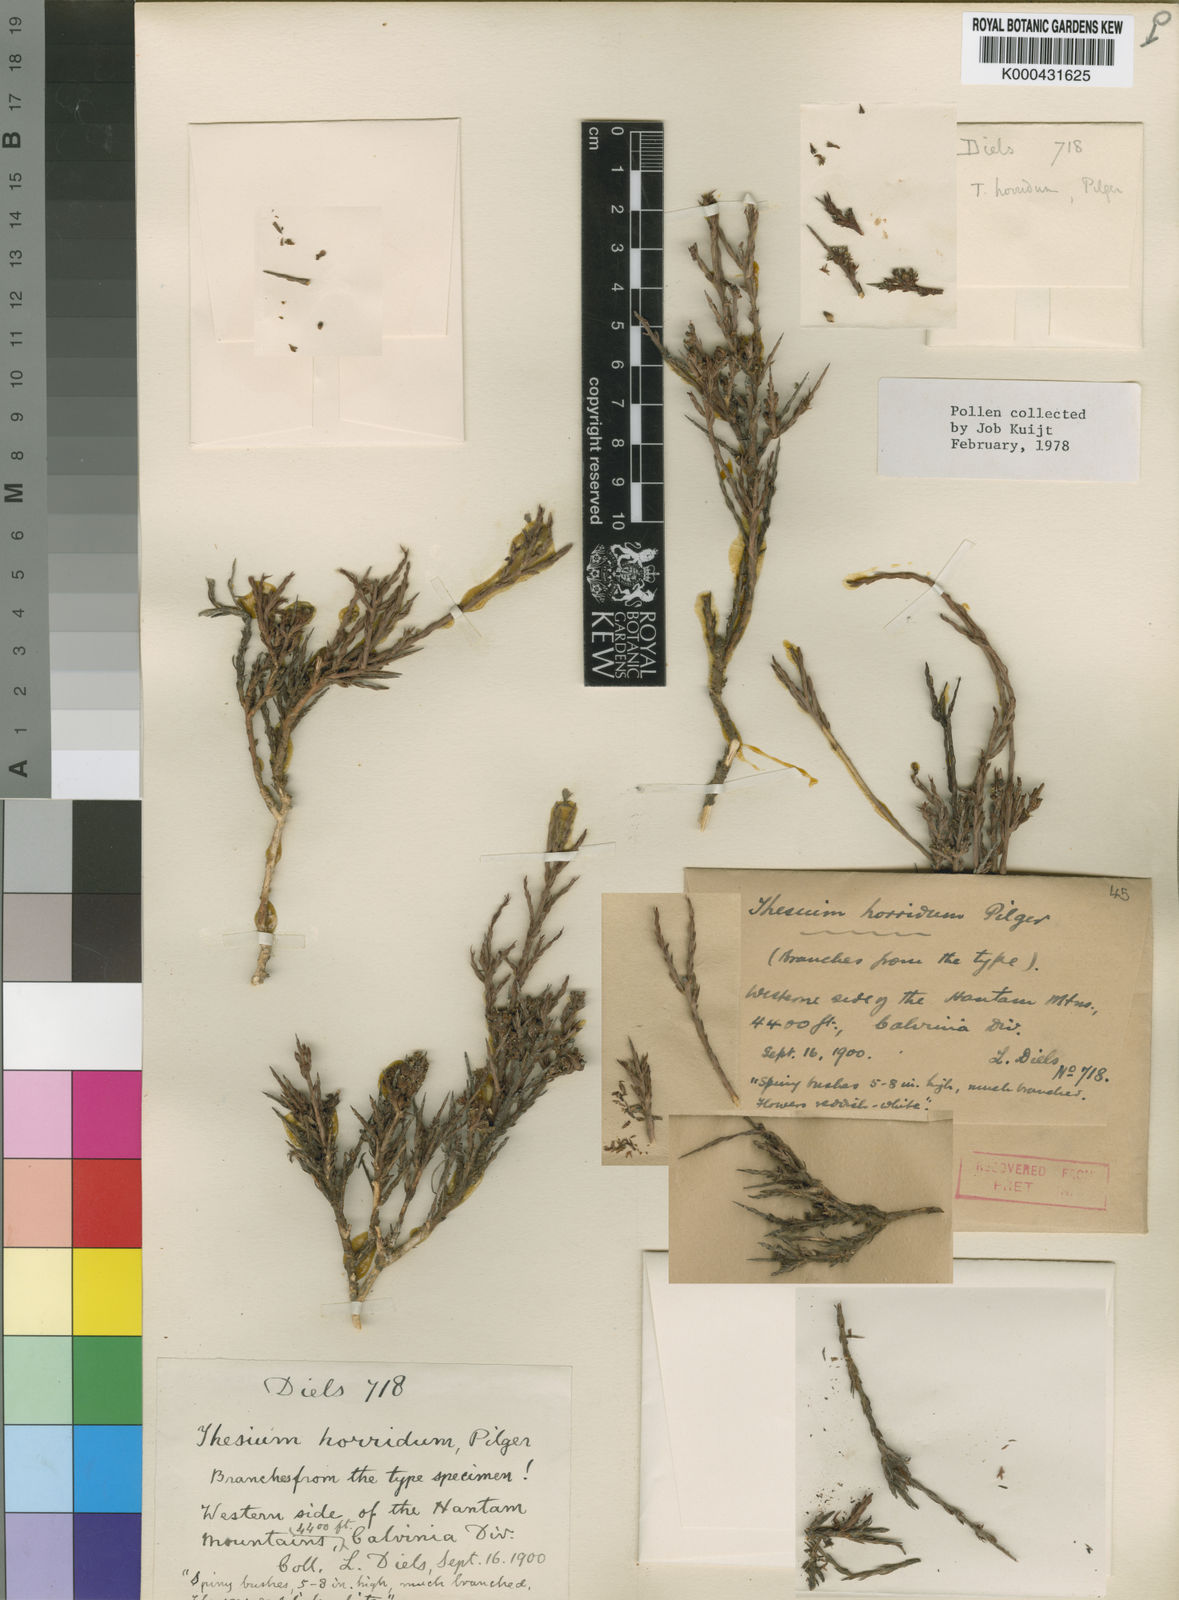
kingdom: Plantae
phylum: Tracheophyta
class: Magnoliopsida
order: Santalales
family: Thesiaceae
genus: Thesium
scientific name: Thesium horridum
